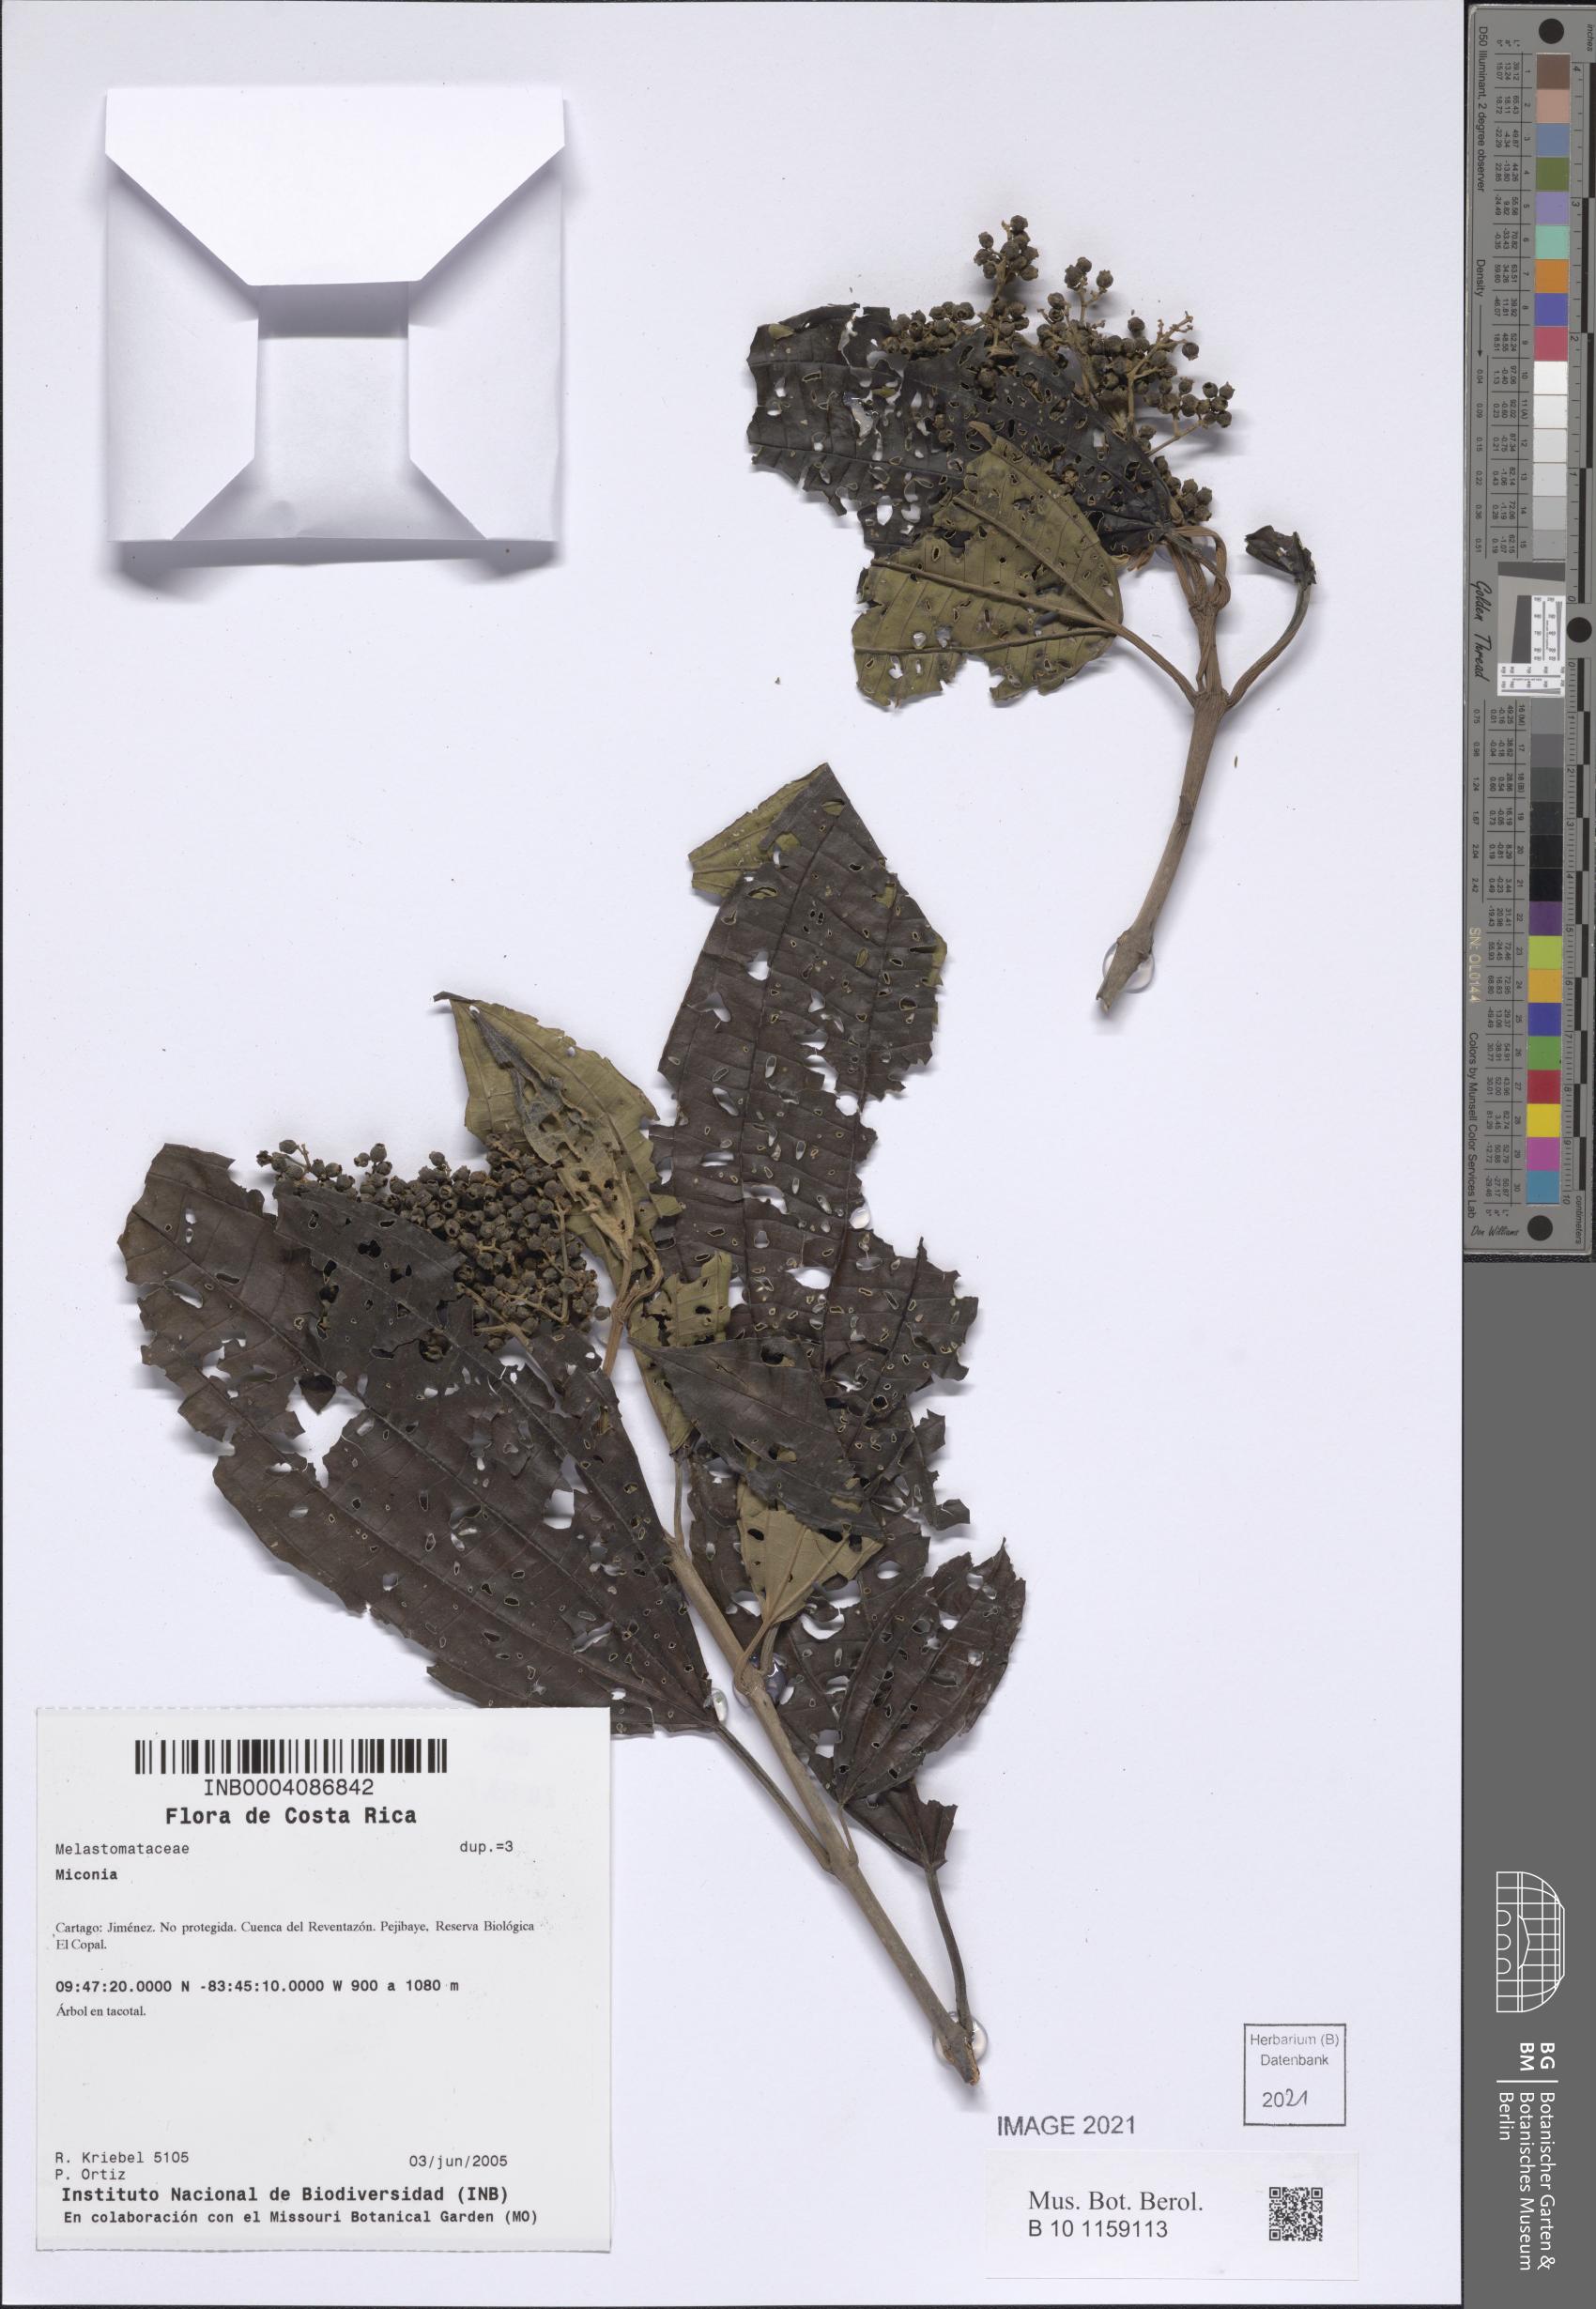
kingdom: Plantae
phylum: Tracheophyta
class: Magnoliopsida
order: Myrtales
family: Melastomataceae
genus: Miconia
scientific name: Miconia
